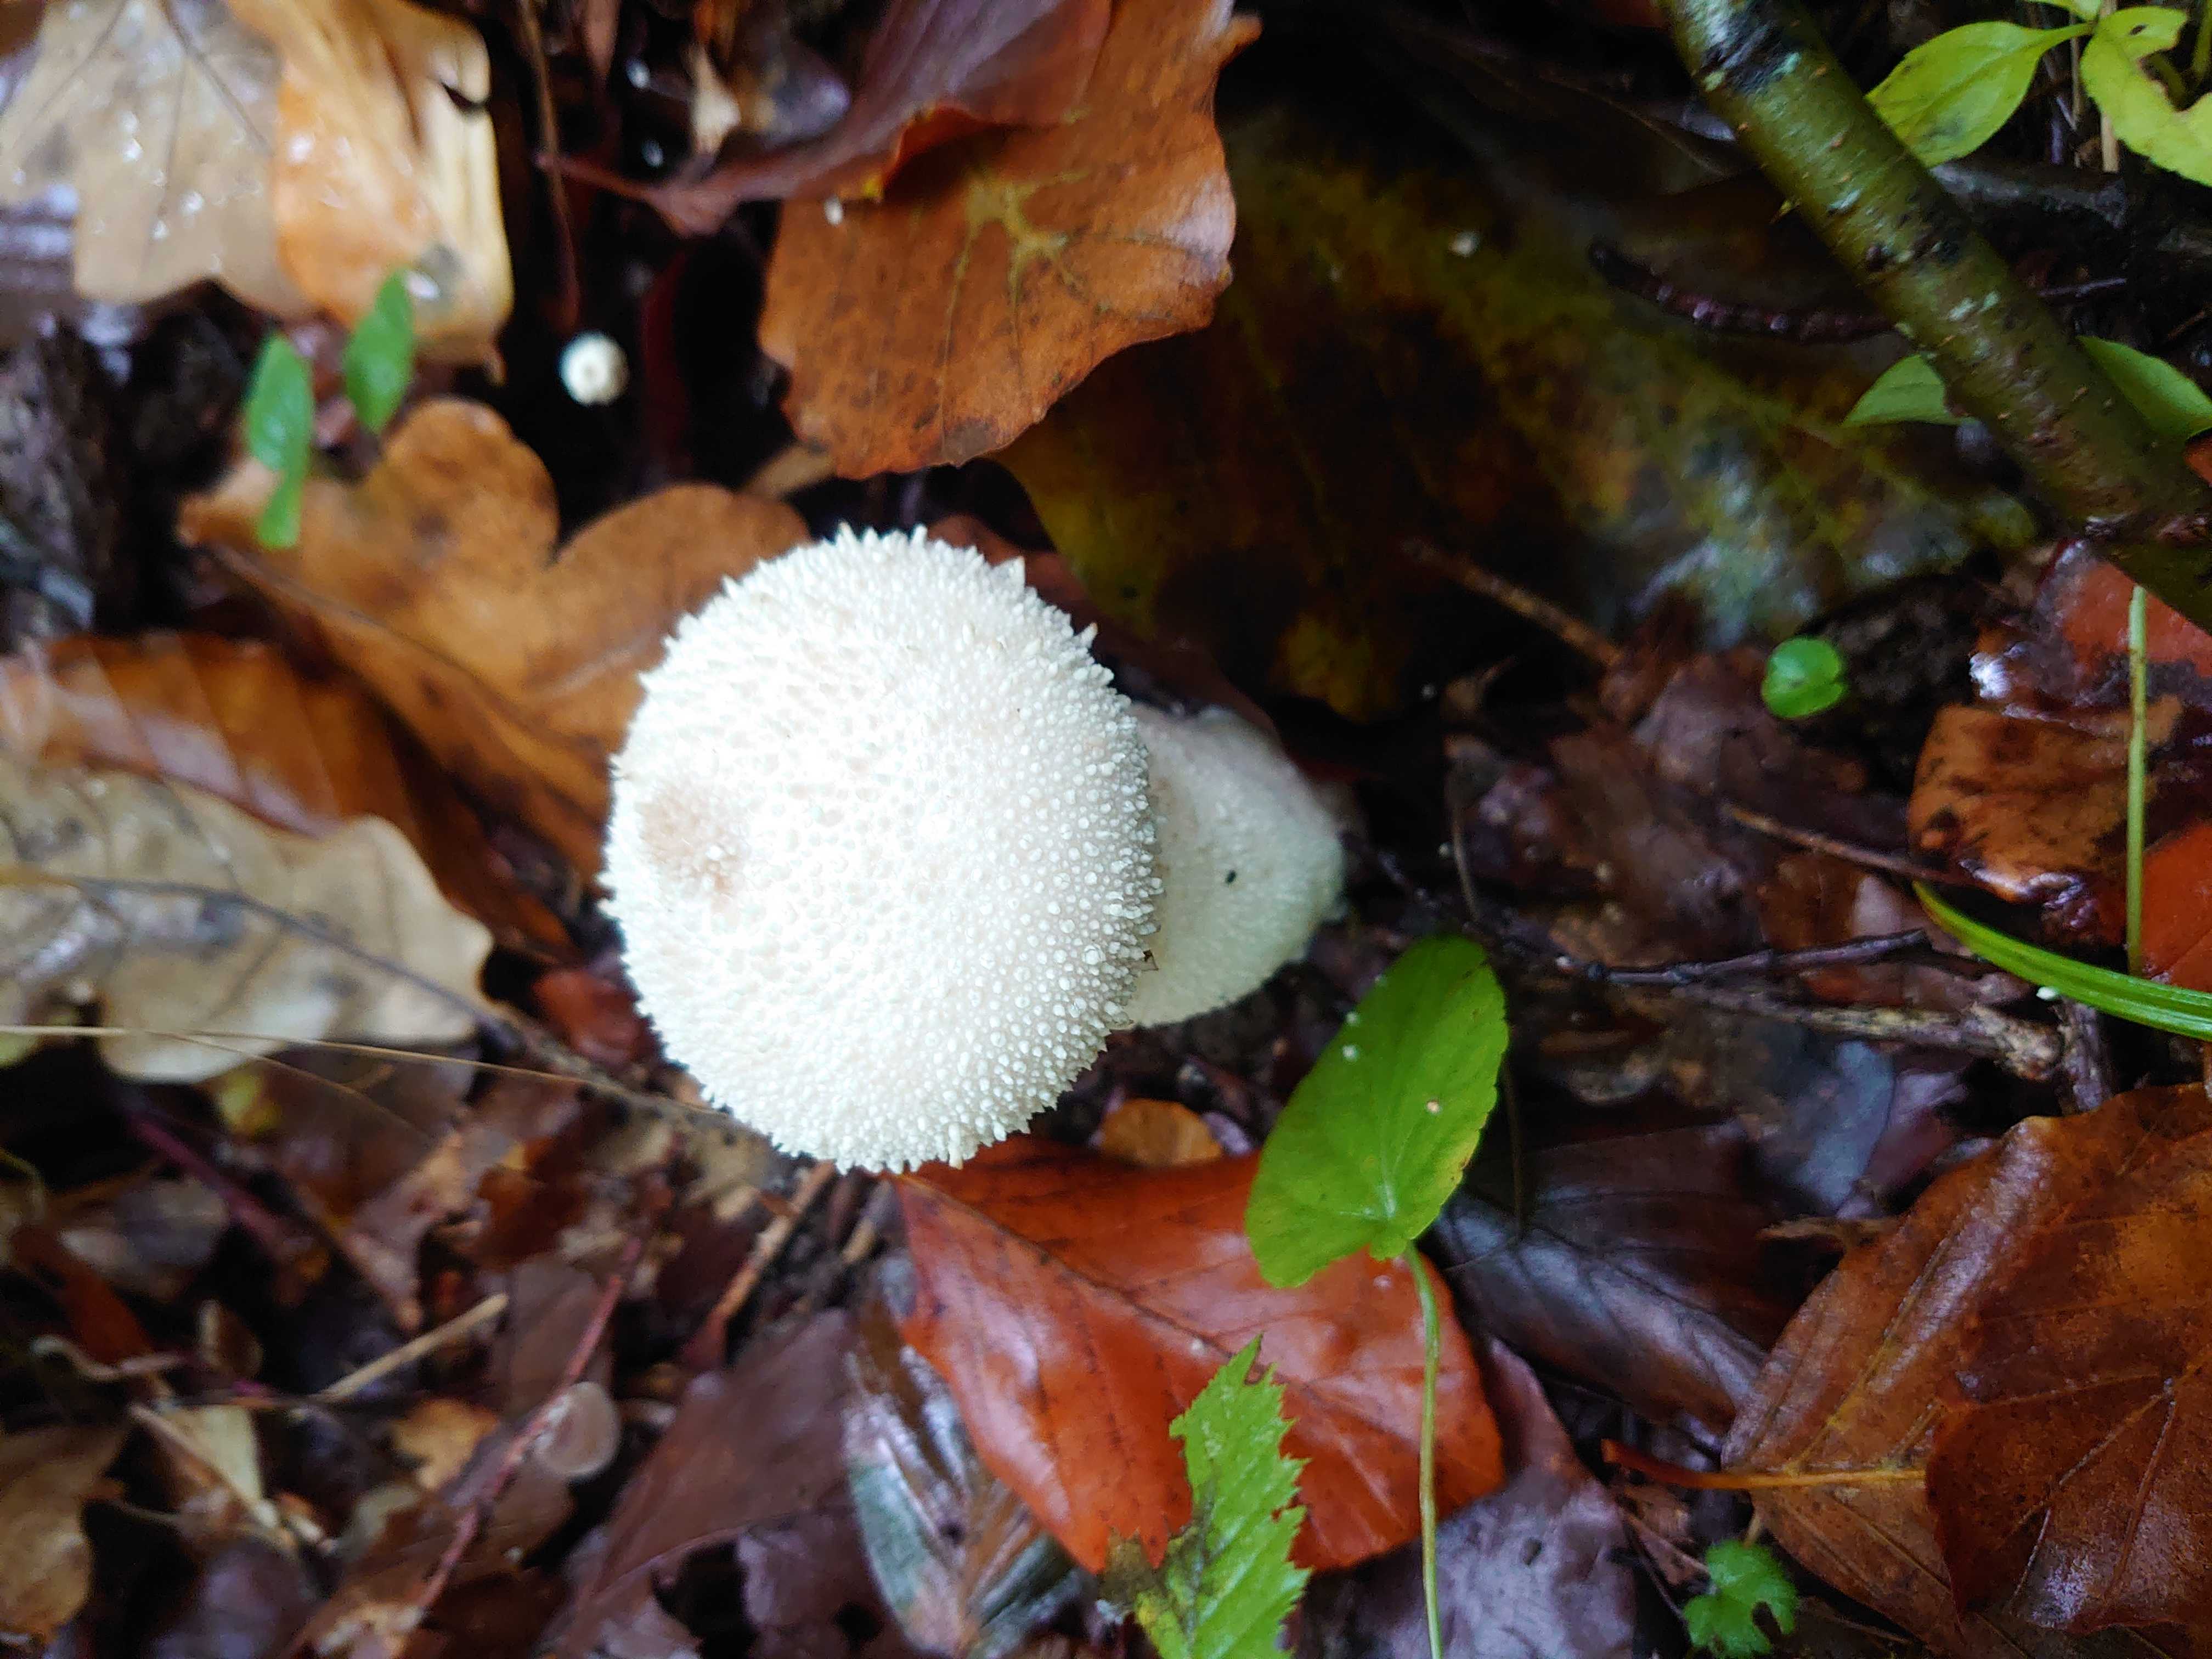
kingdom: Fungi
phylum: Basidiomycota
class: Agaricomycetes
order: Agaricales
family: Lycoperdaceae
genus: Lycoperdon
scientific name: Lycoperdon perlatum
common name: krystal-støvbold
